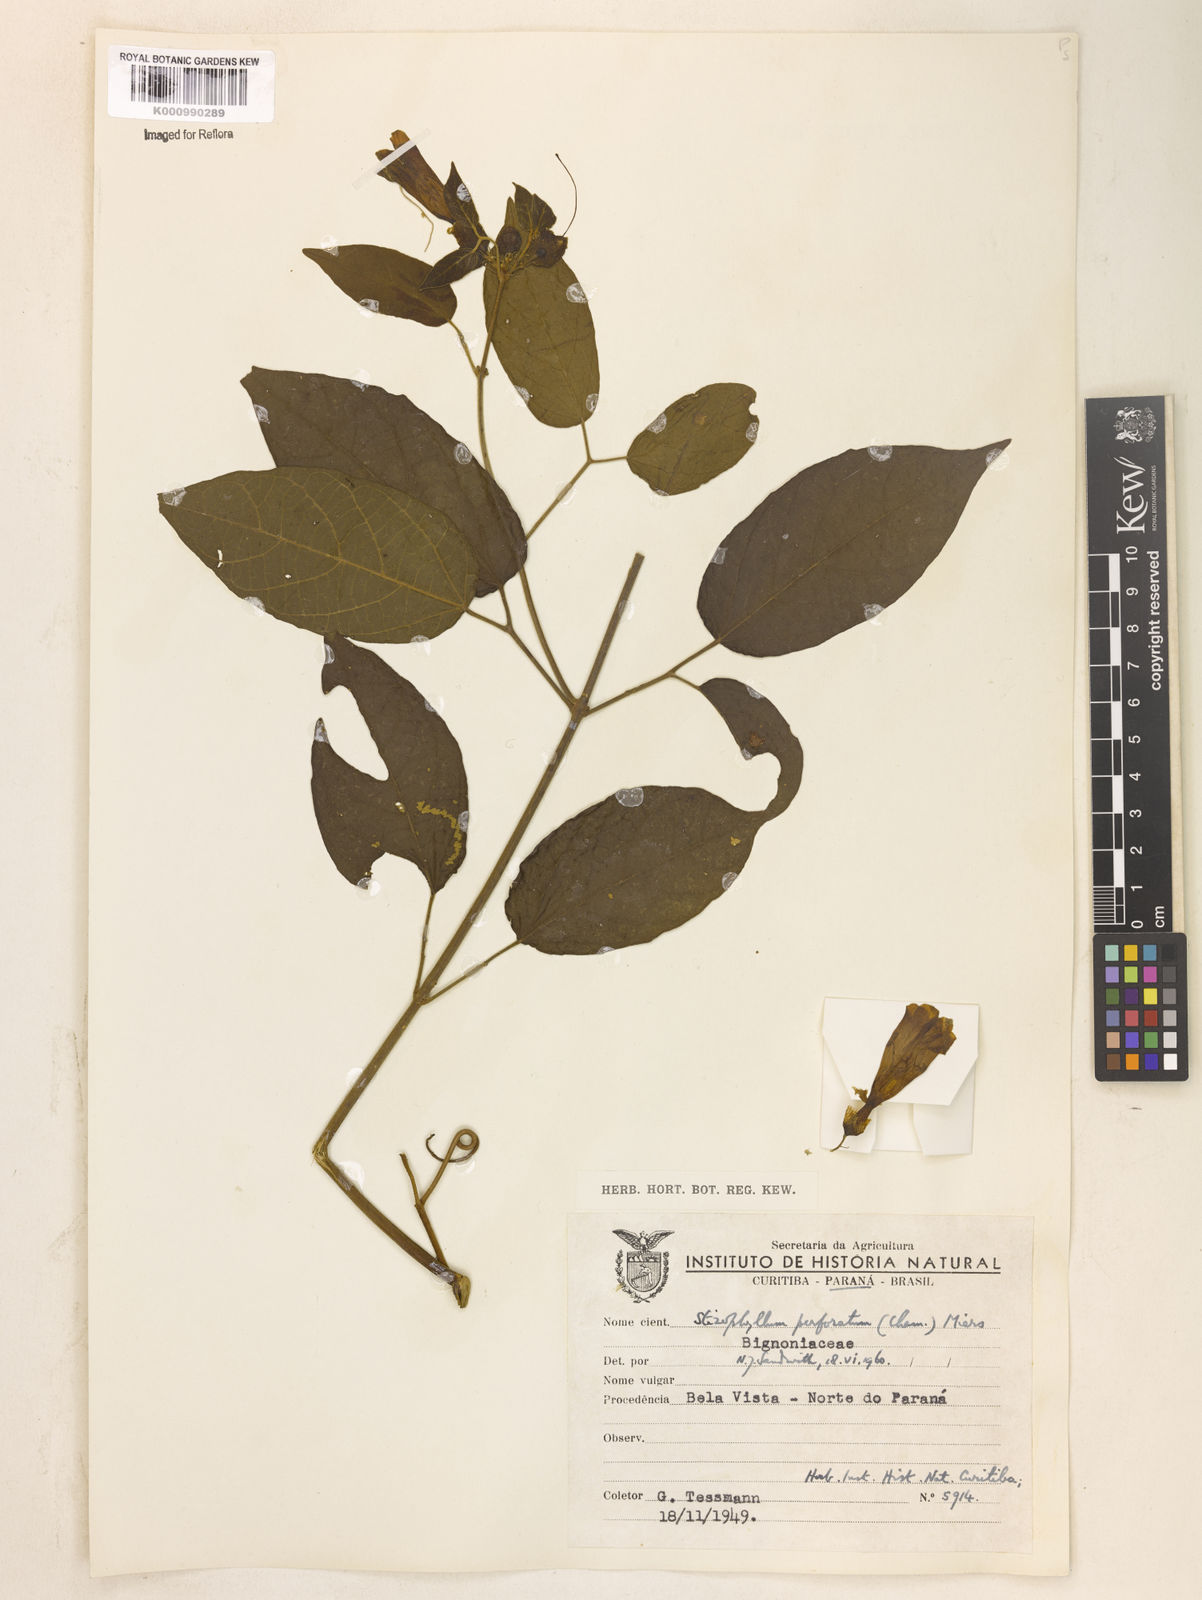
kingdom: Plantae
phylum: Tracheophyta
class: Magnoliopsida
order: Lamiales
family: Bignoniaceae
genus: Stizophyllum
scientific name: Stizophyllum perforatum
